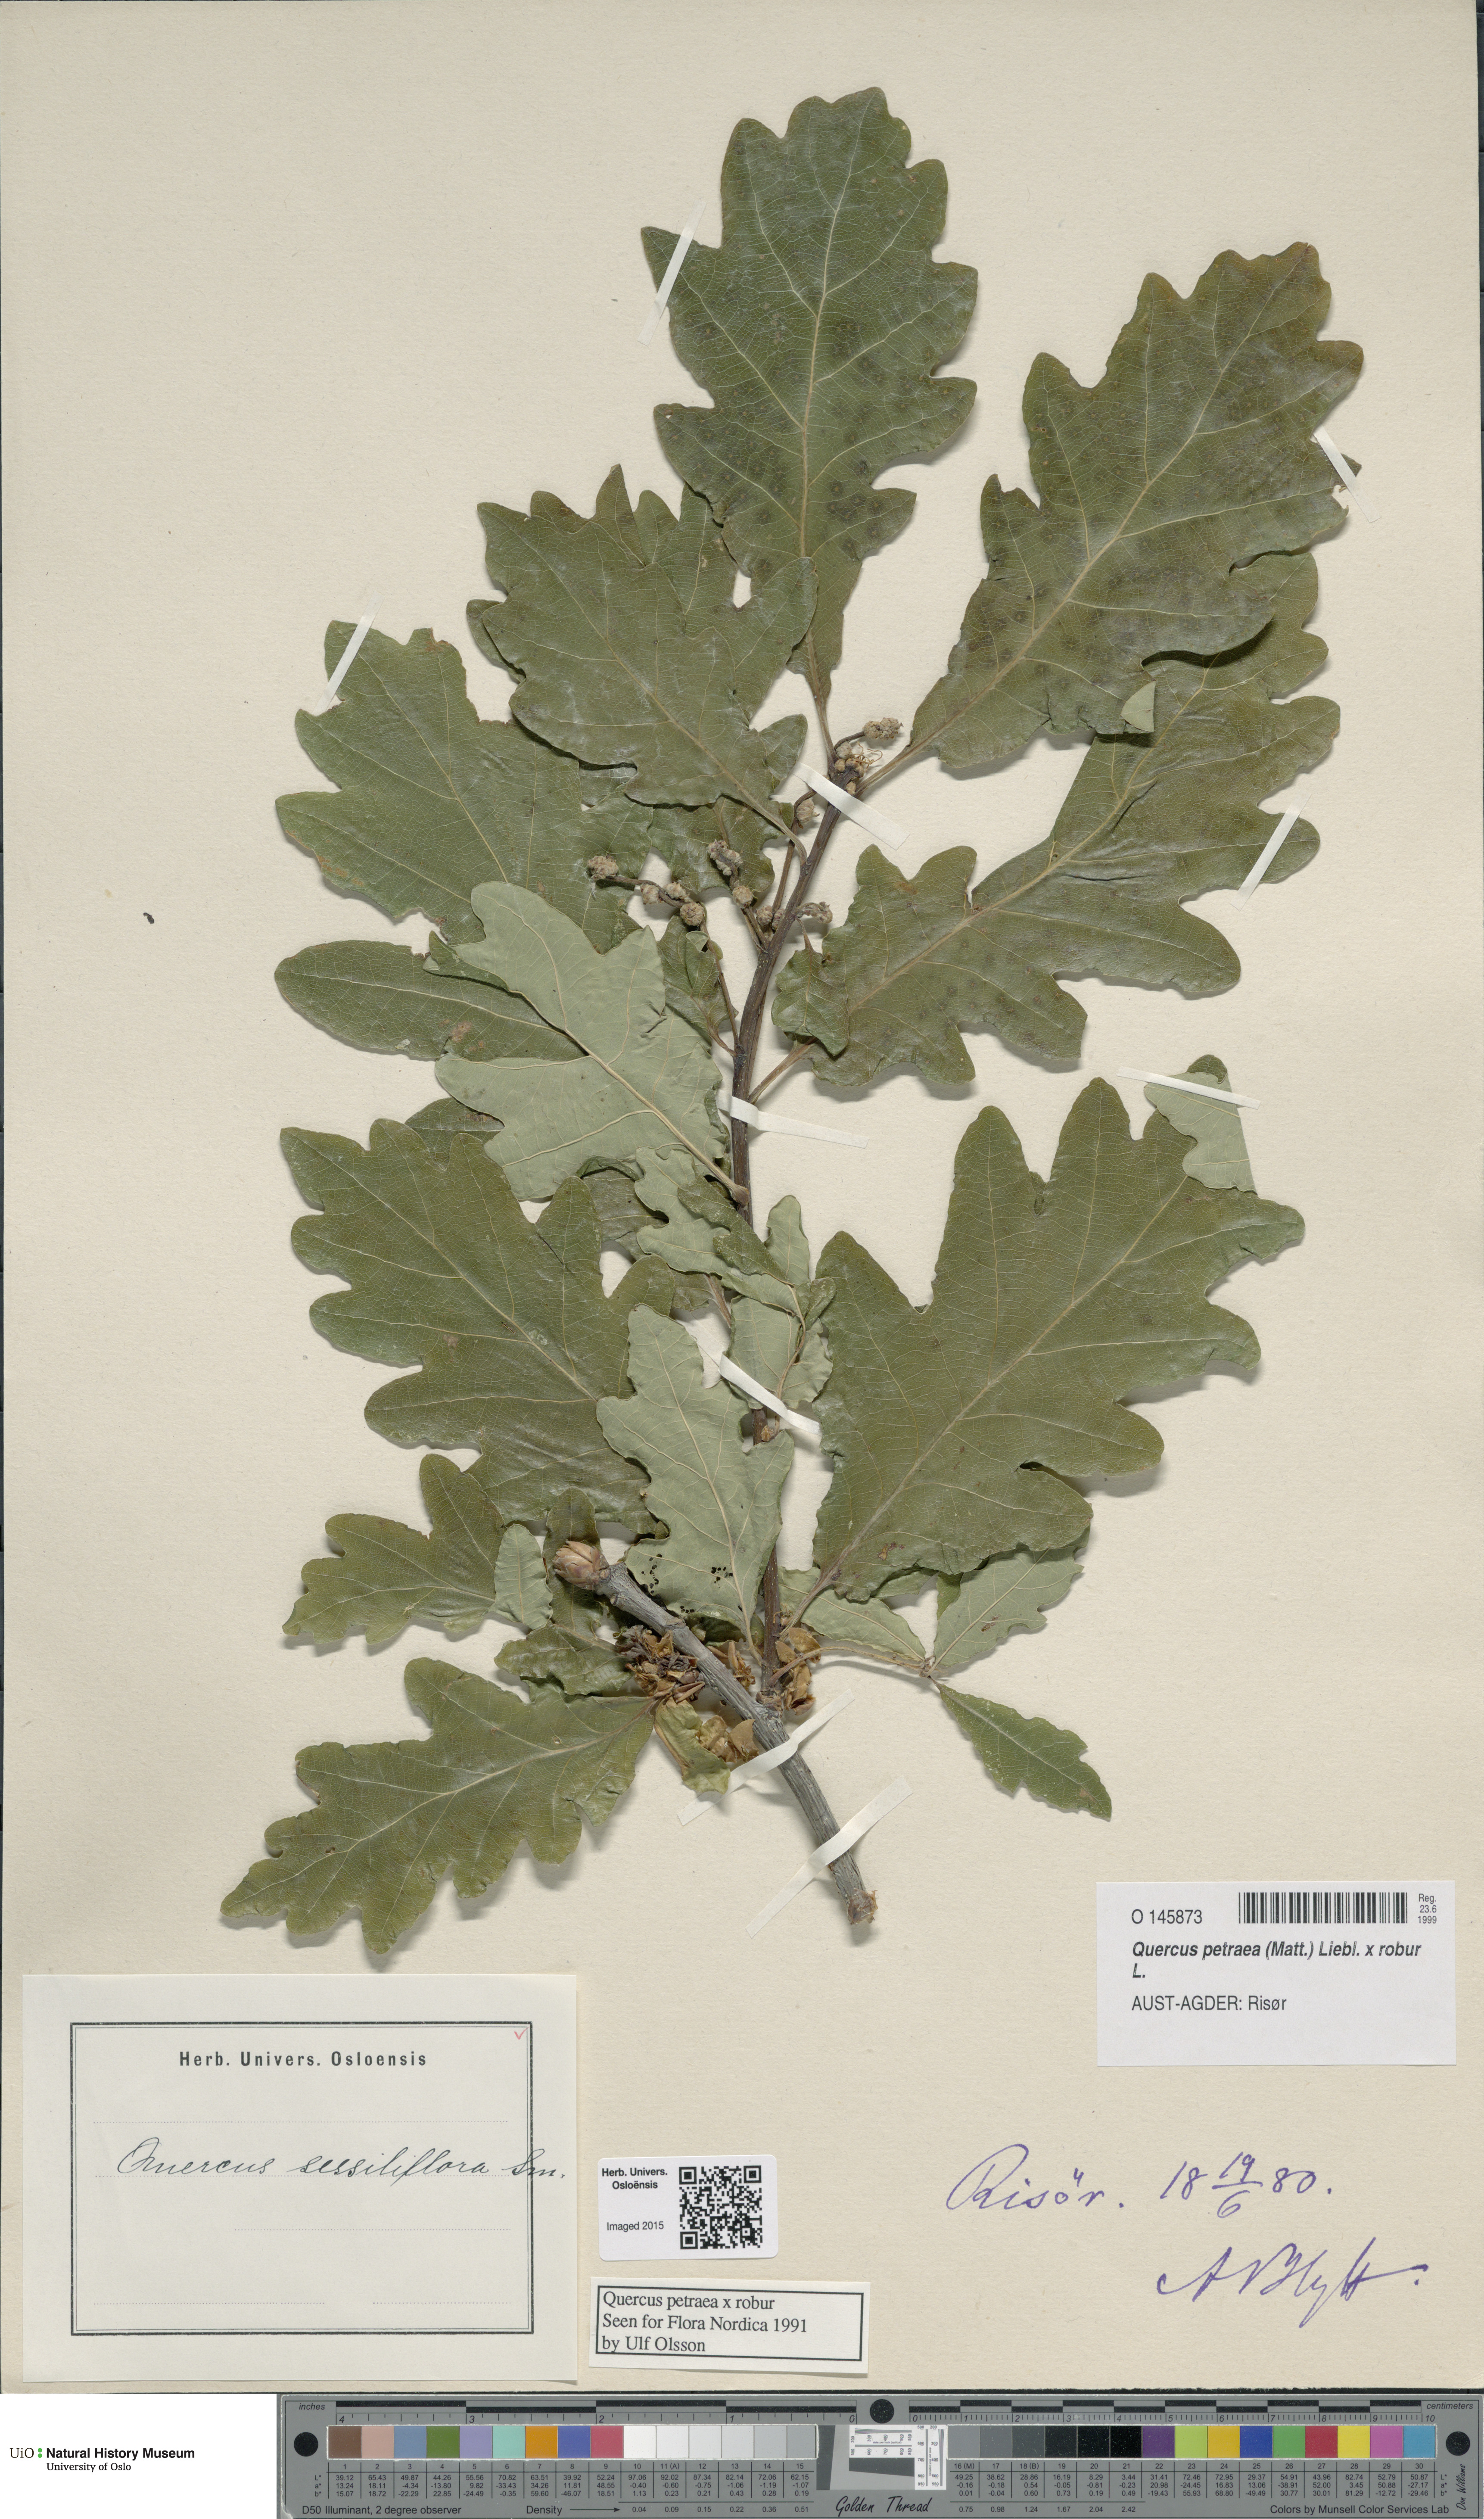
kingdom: Plantae
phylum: Tracheophyta
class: Magnoliopsida
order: Fagales
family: Fagaceae
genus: Quercus
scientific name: Quercus
